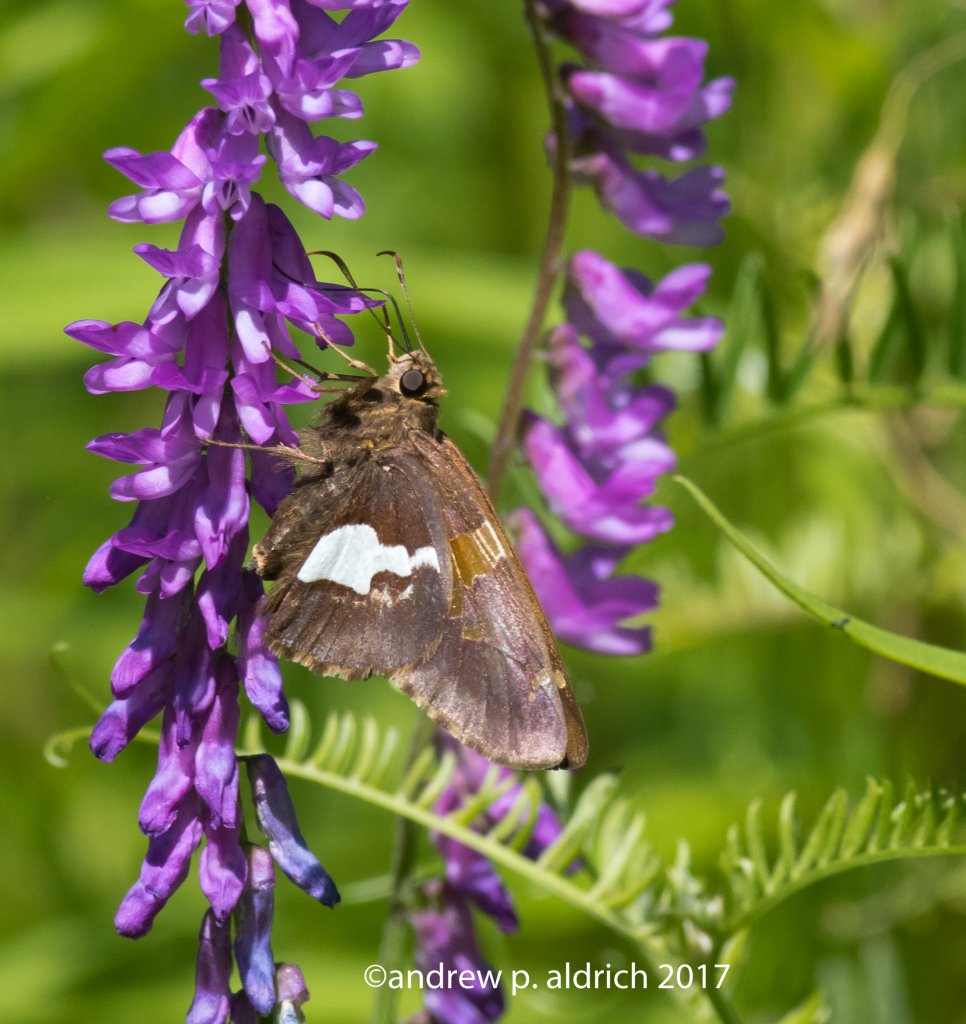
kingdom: Animalia
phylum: Arthropoda
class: Insecta
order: Lepidoptera
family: Hesperiidae
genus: Epargyreus
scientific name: Epargyreus clarus
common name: Silver-spotted Skipper
